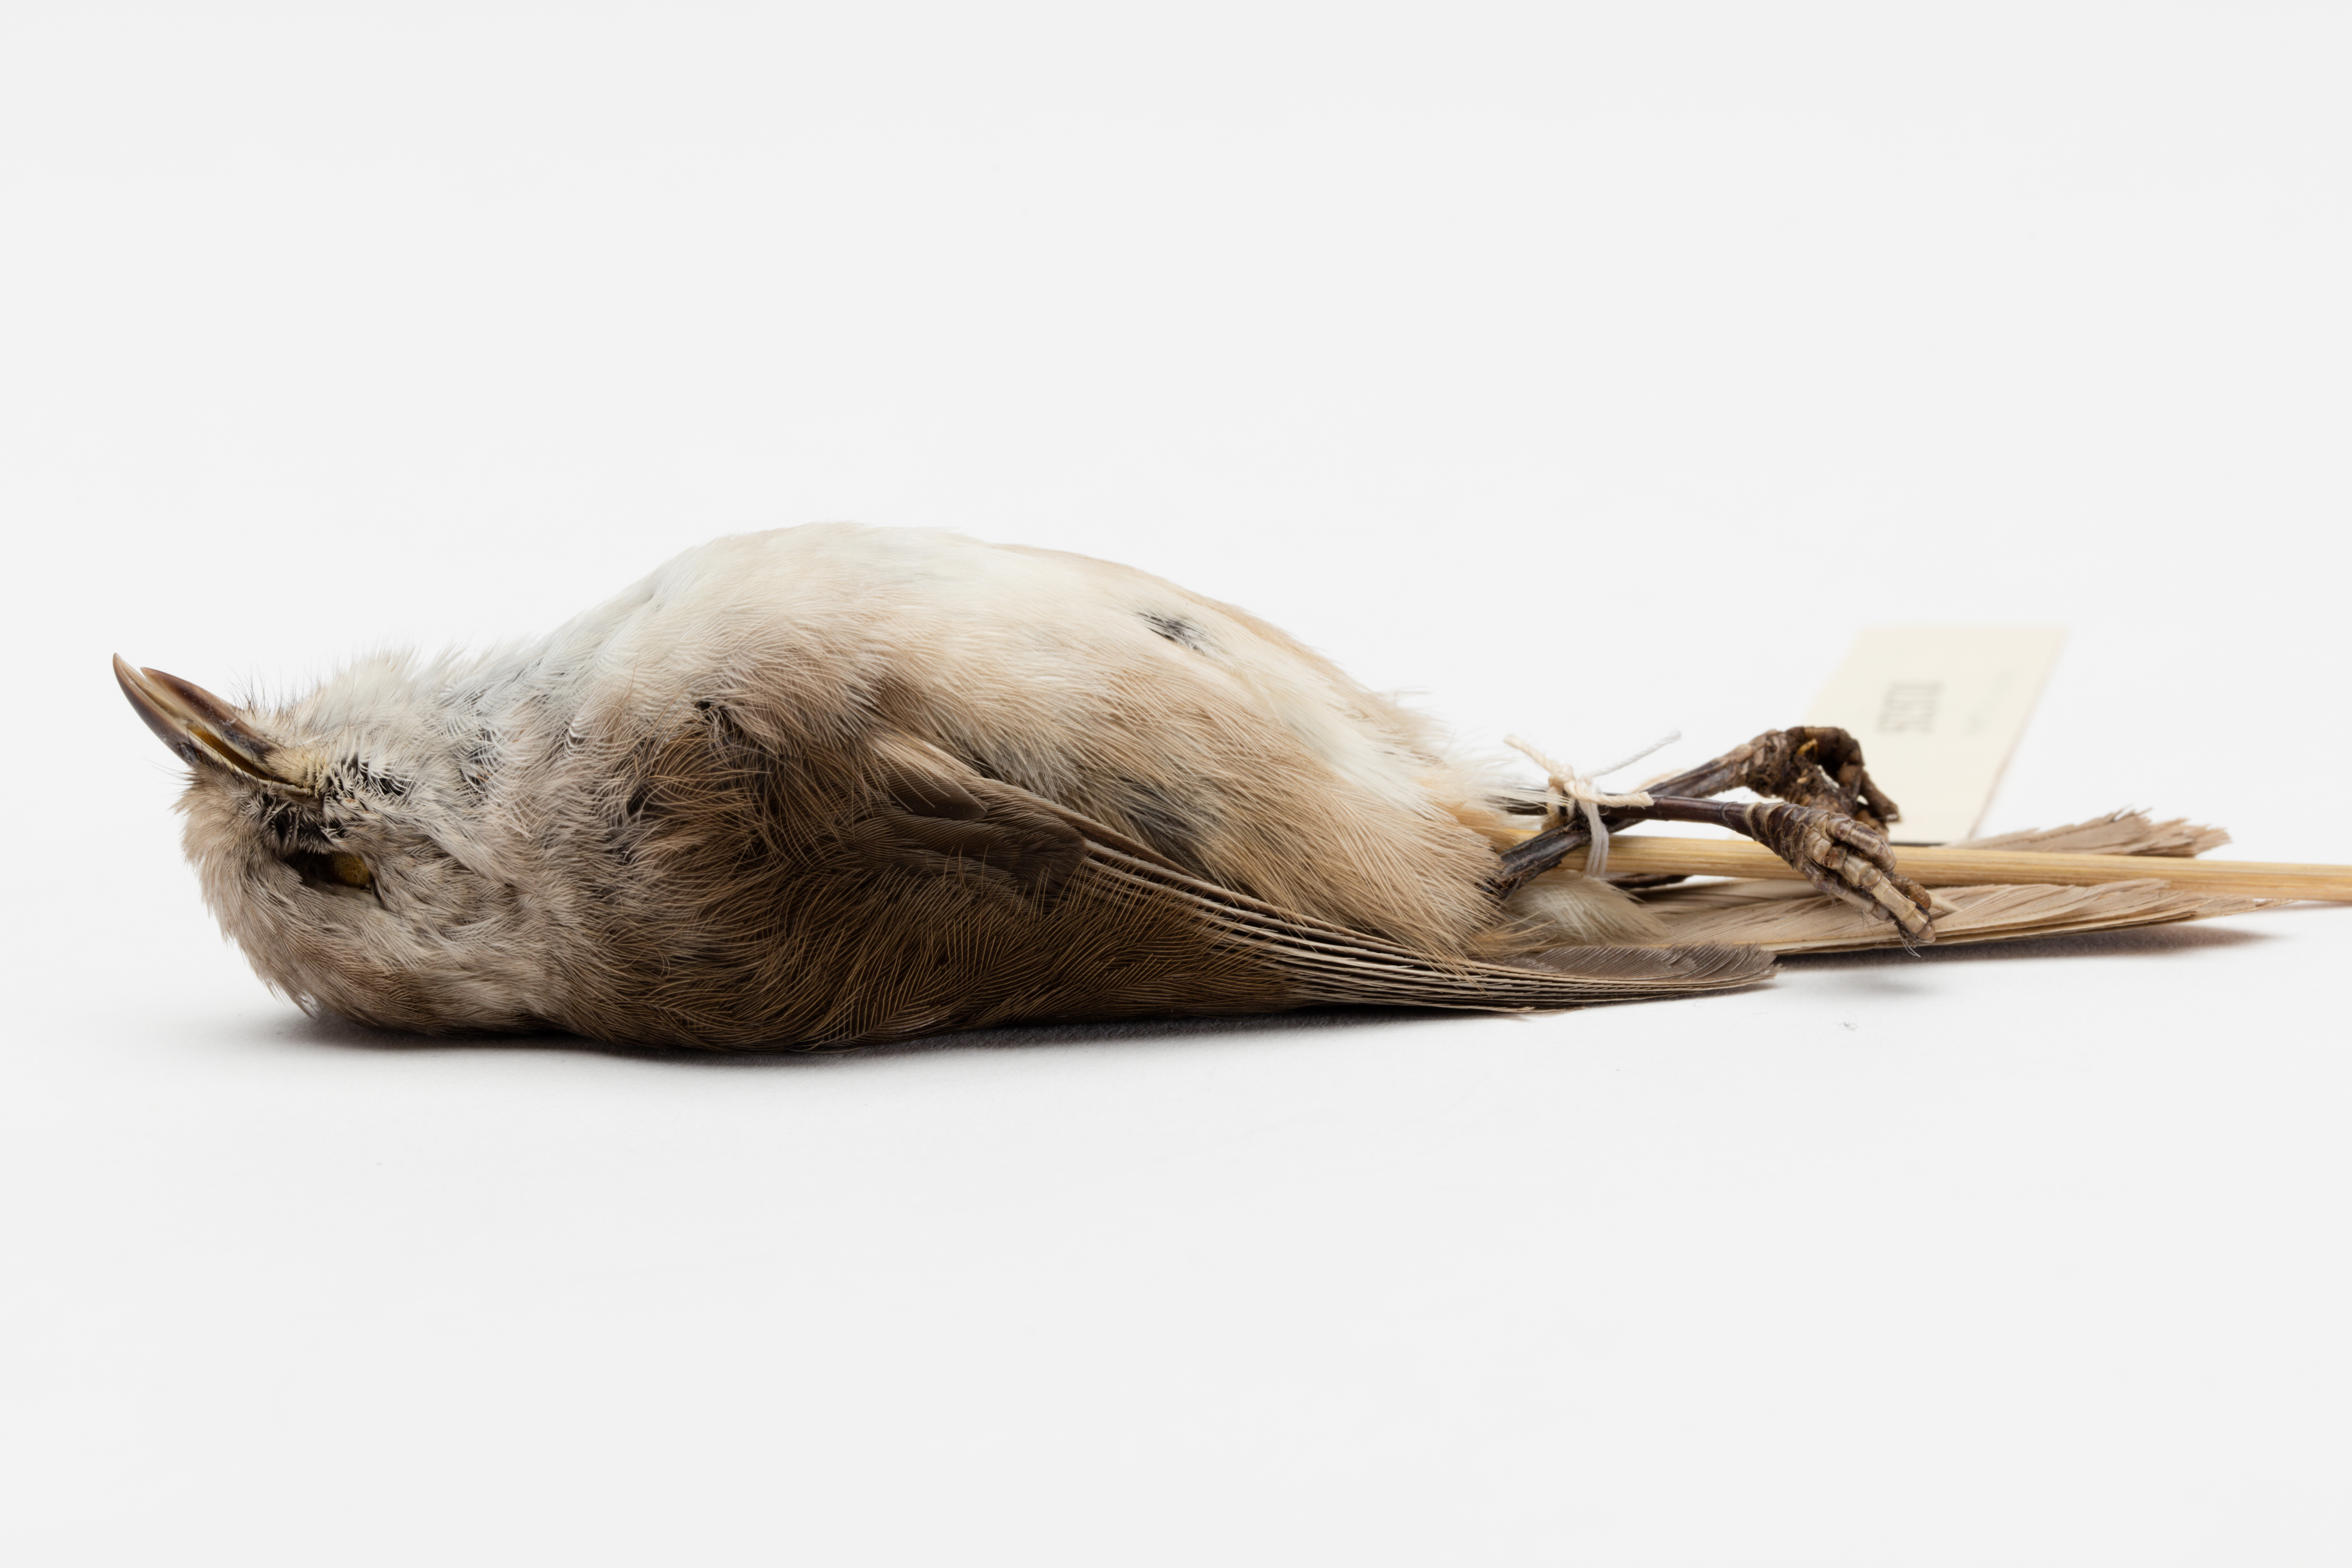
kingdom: Animalia
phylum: Chordata
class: Aves
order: Passeriformes
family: Acanthizidae
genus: Mohoua
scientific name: Mohoua albicilla
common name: Whitehead
